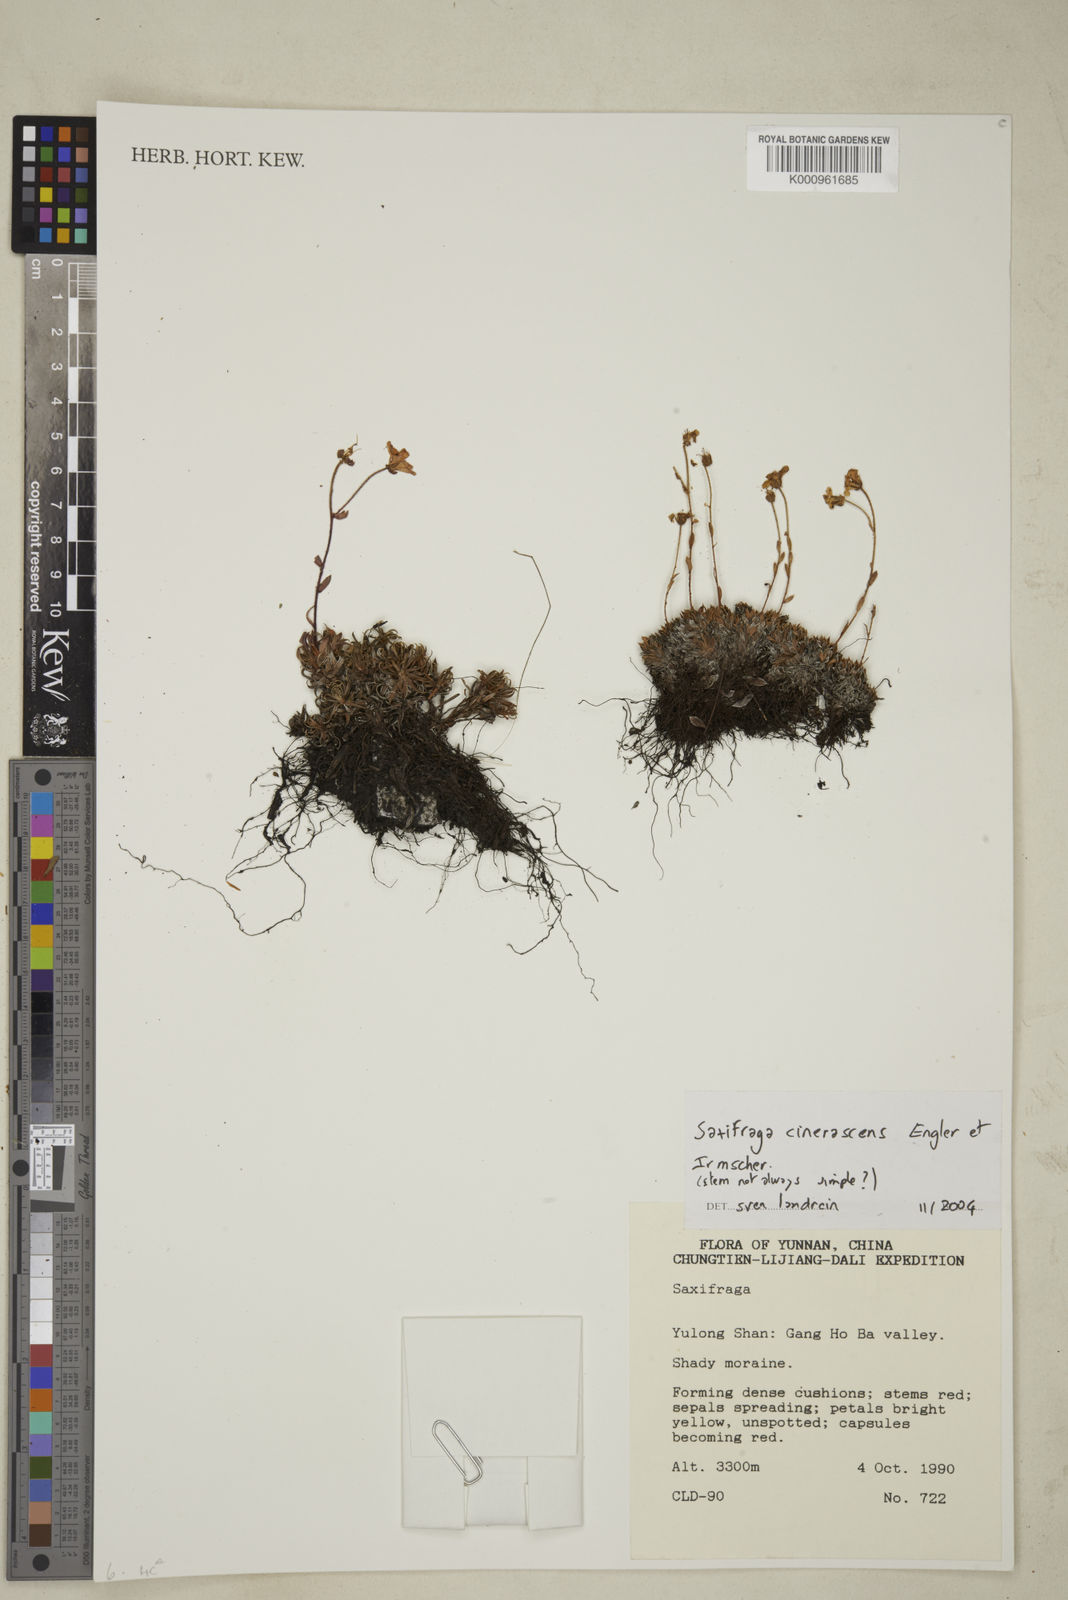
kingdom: Plantae
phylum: Tracheophyta
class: Magnoliopsida
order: Saxifragales
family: Saxifragaceae
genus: Saxifraga
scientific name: Saxifraga cinerascens
